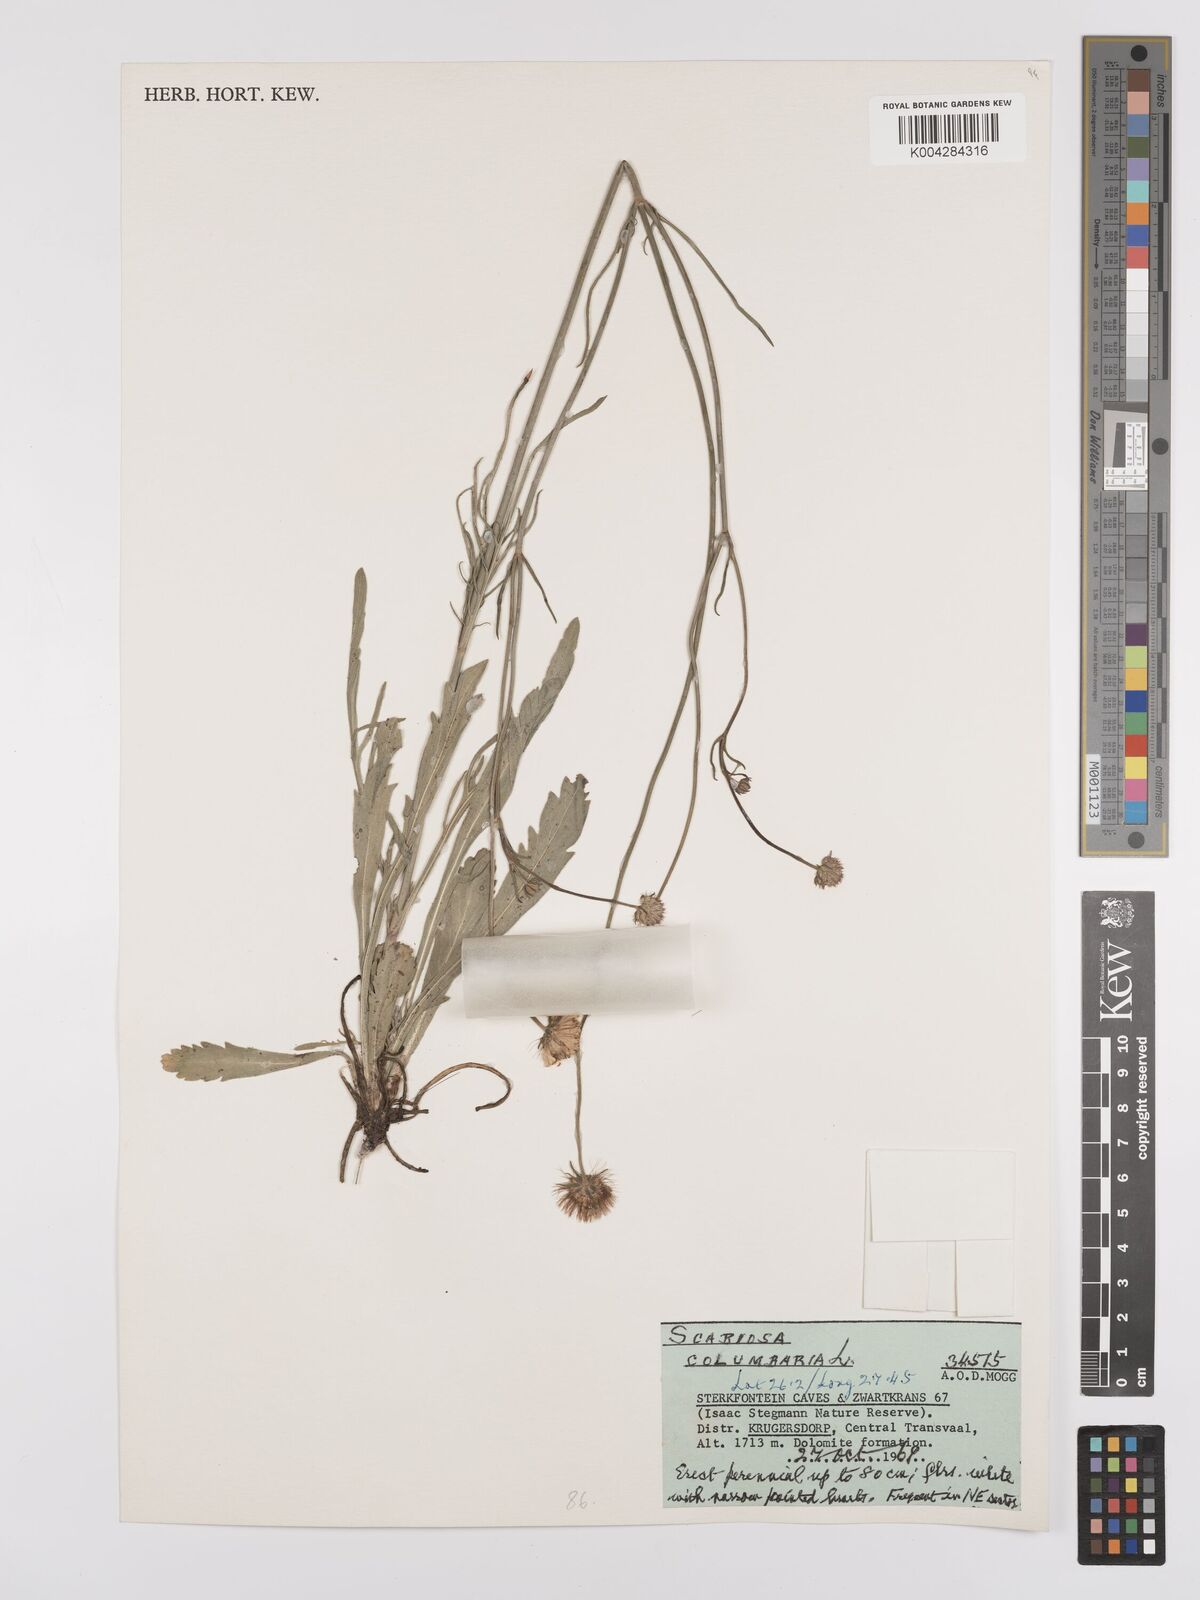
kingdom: Plantae
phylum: Tracheophyta
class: Magnoliopsida
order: Dipsacales
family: Caprifoliaceae
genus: Scabiosa
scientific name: Scabiosa austroafricana
